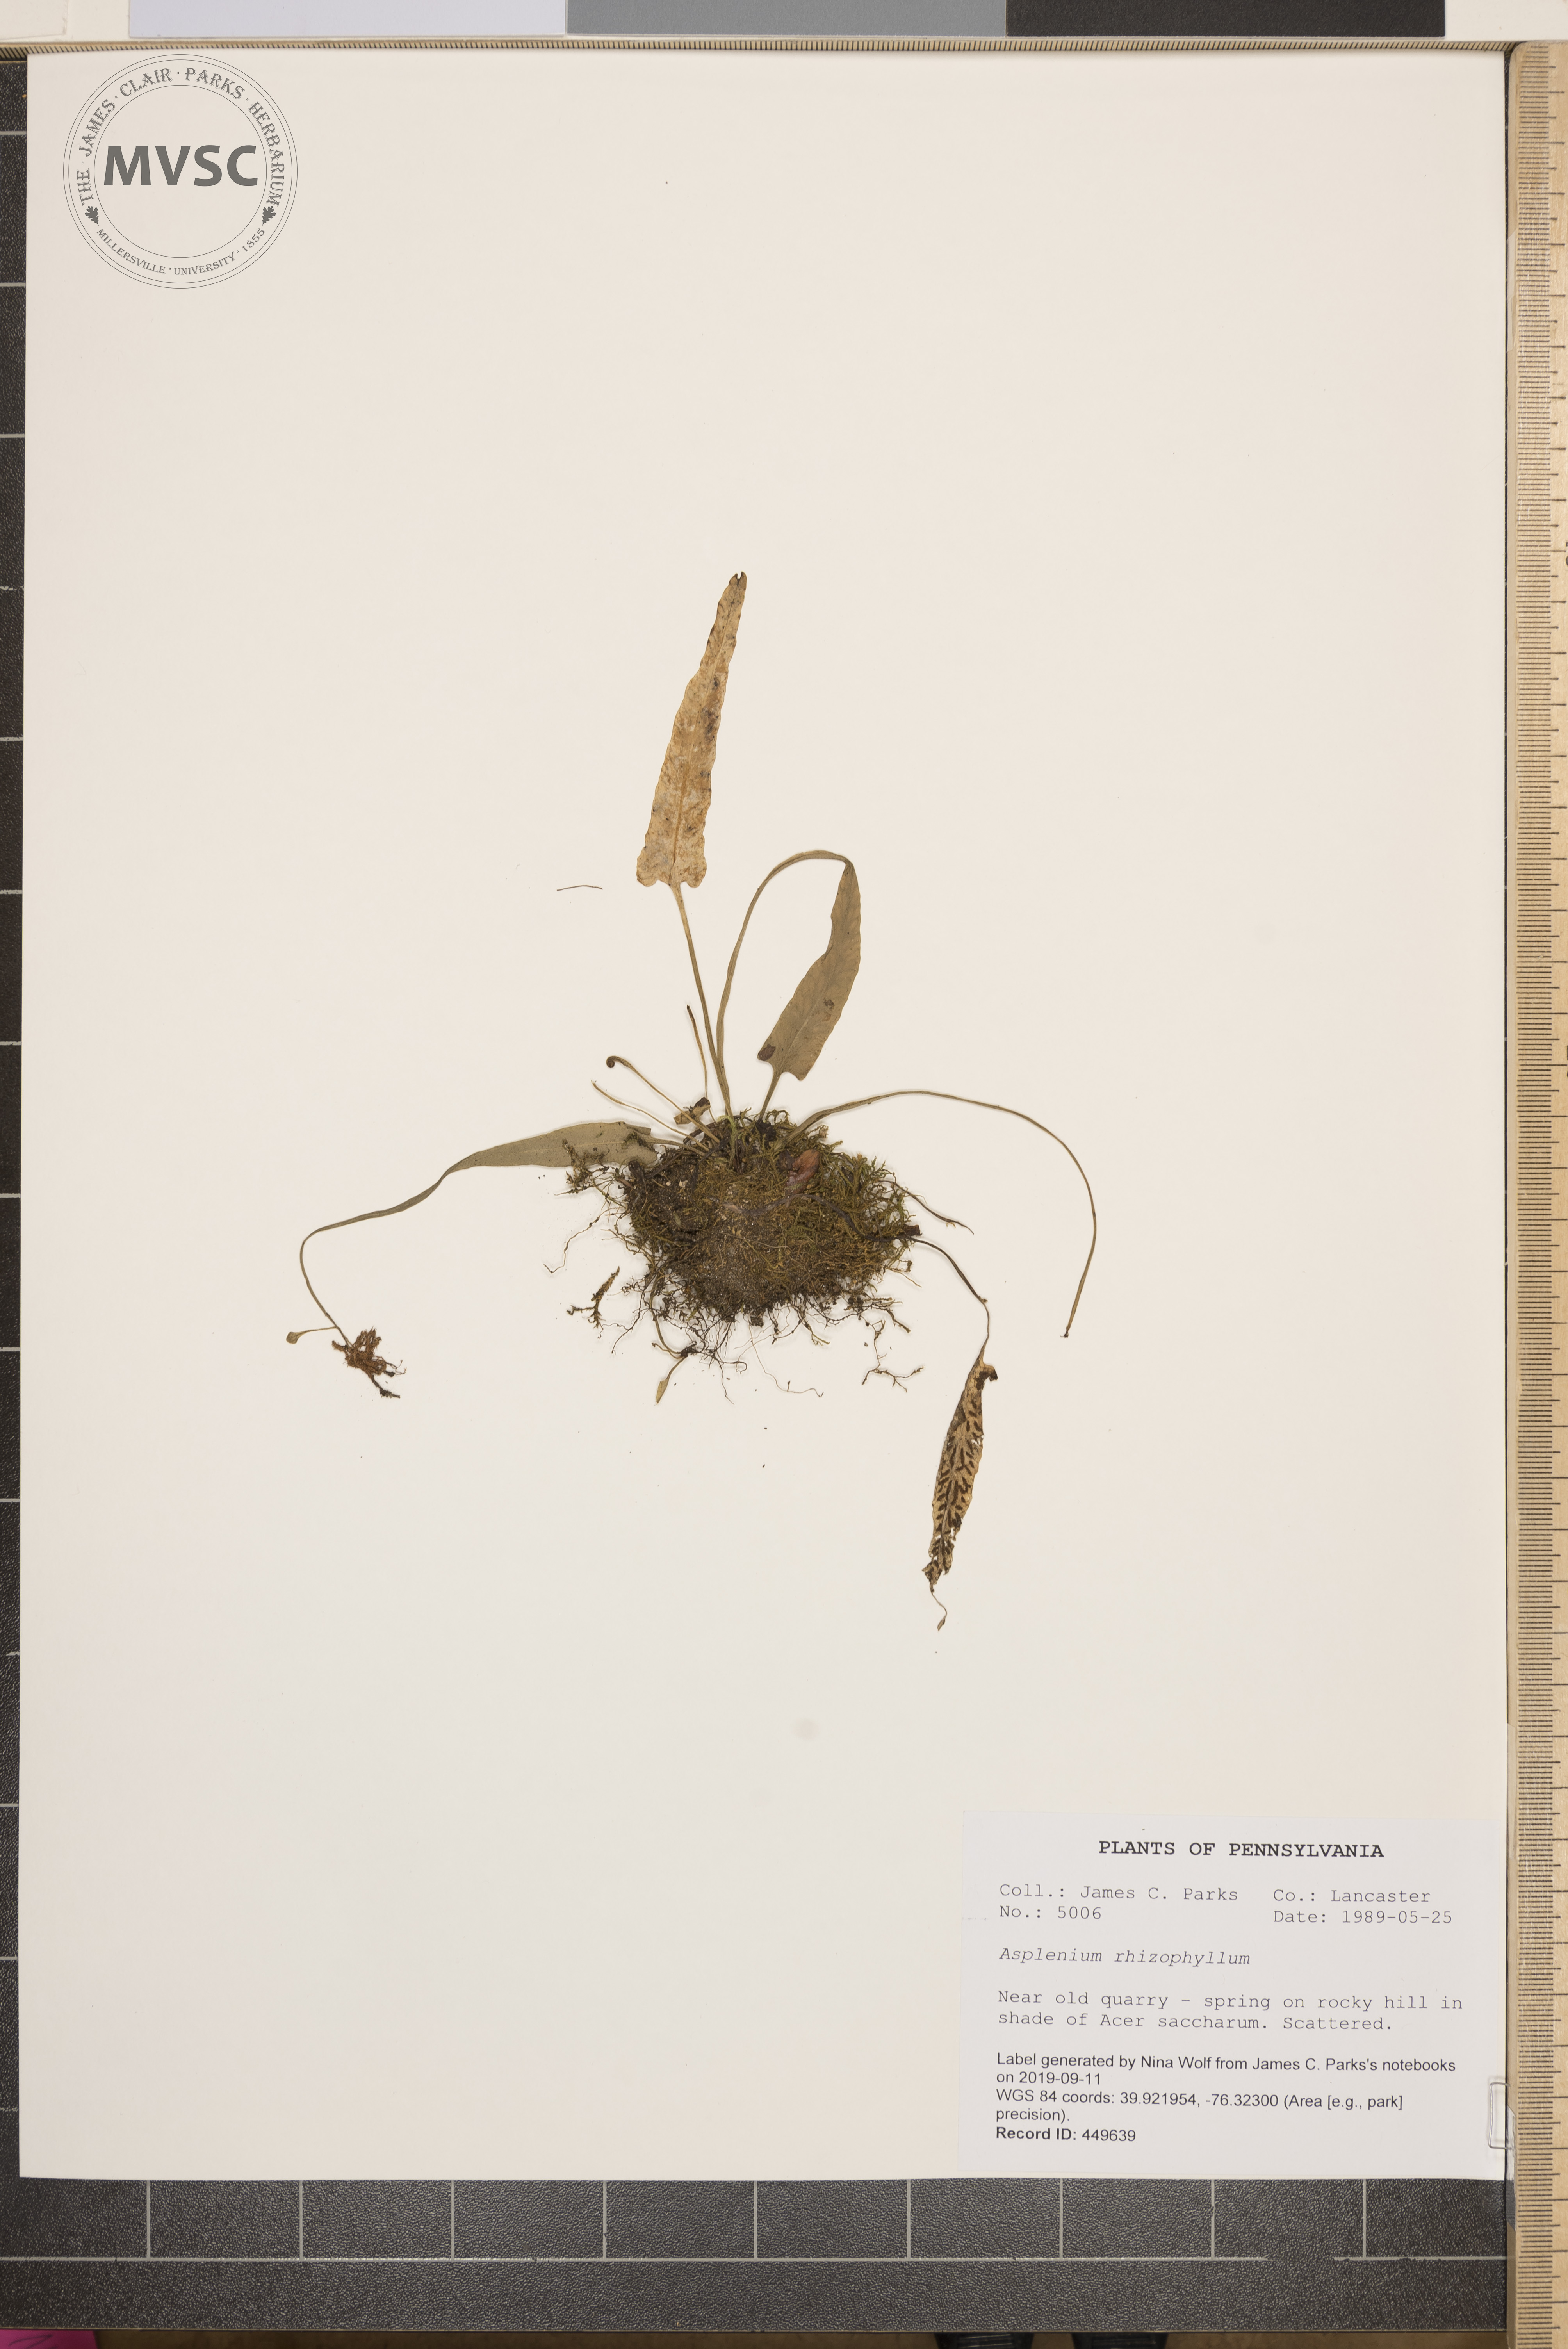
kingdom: Plantae
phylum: Tracheophyta
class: Polypodiopsida
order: Polypodiales
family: Aspleniaceae
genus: Asplenium
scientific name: Asplenium rhizophyllum
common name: Walking fern
